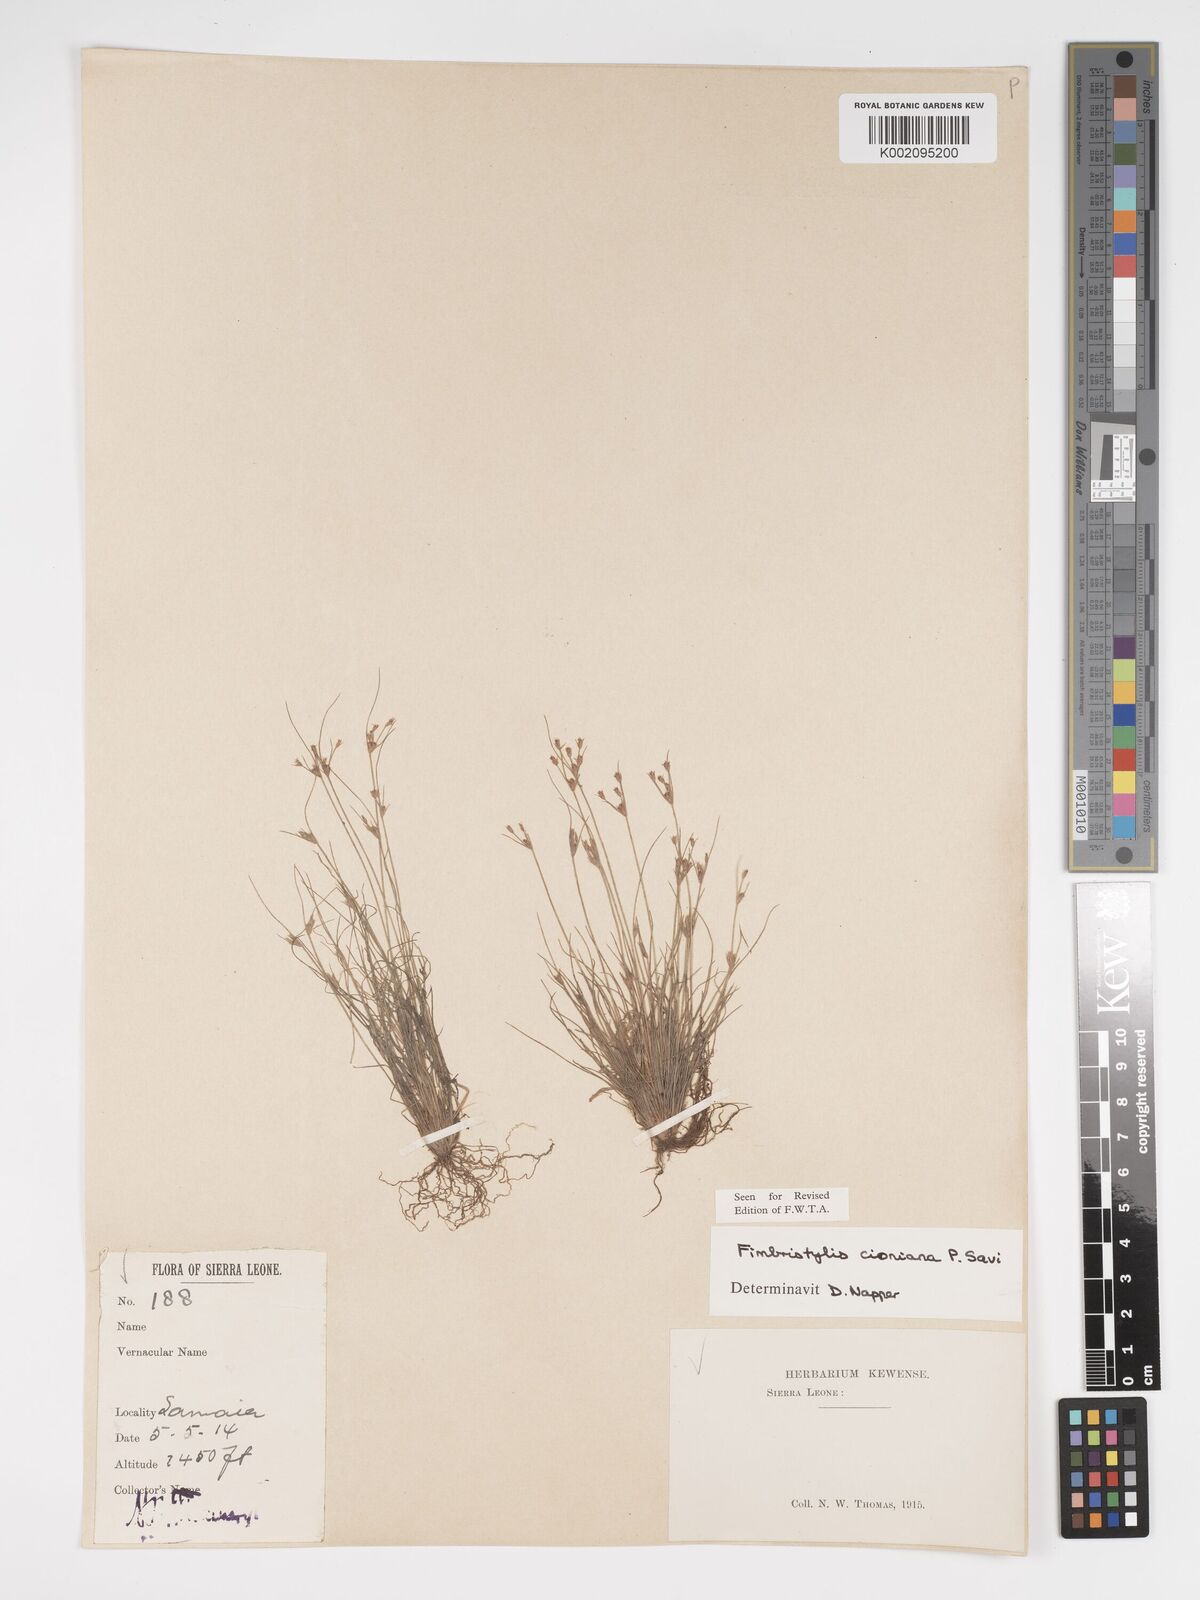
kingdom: Plantae
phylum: Tracheophyta
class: Liliopsida
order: Poales
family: Cyperaceae
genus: Bulbostylis
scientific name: Bulbostylis cioniana
